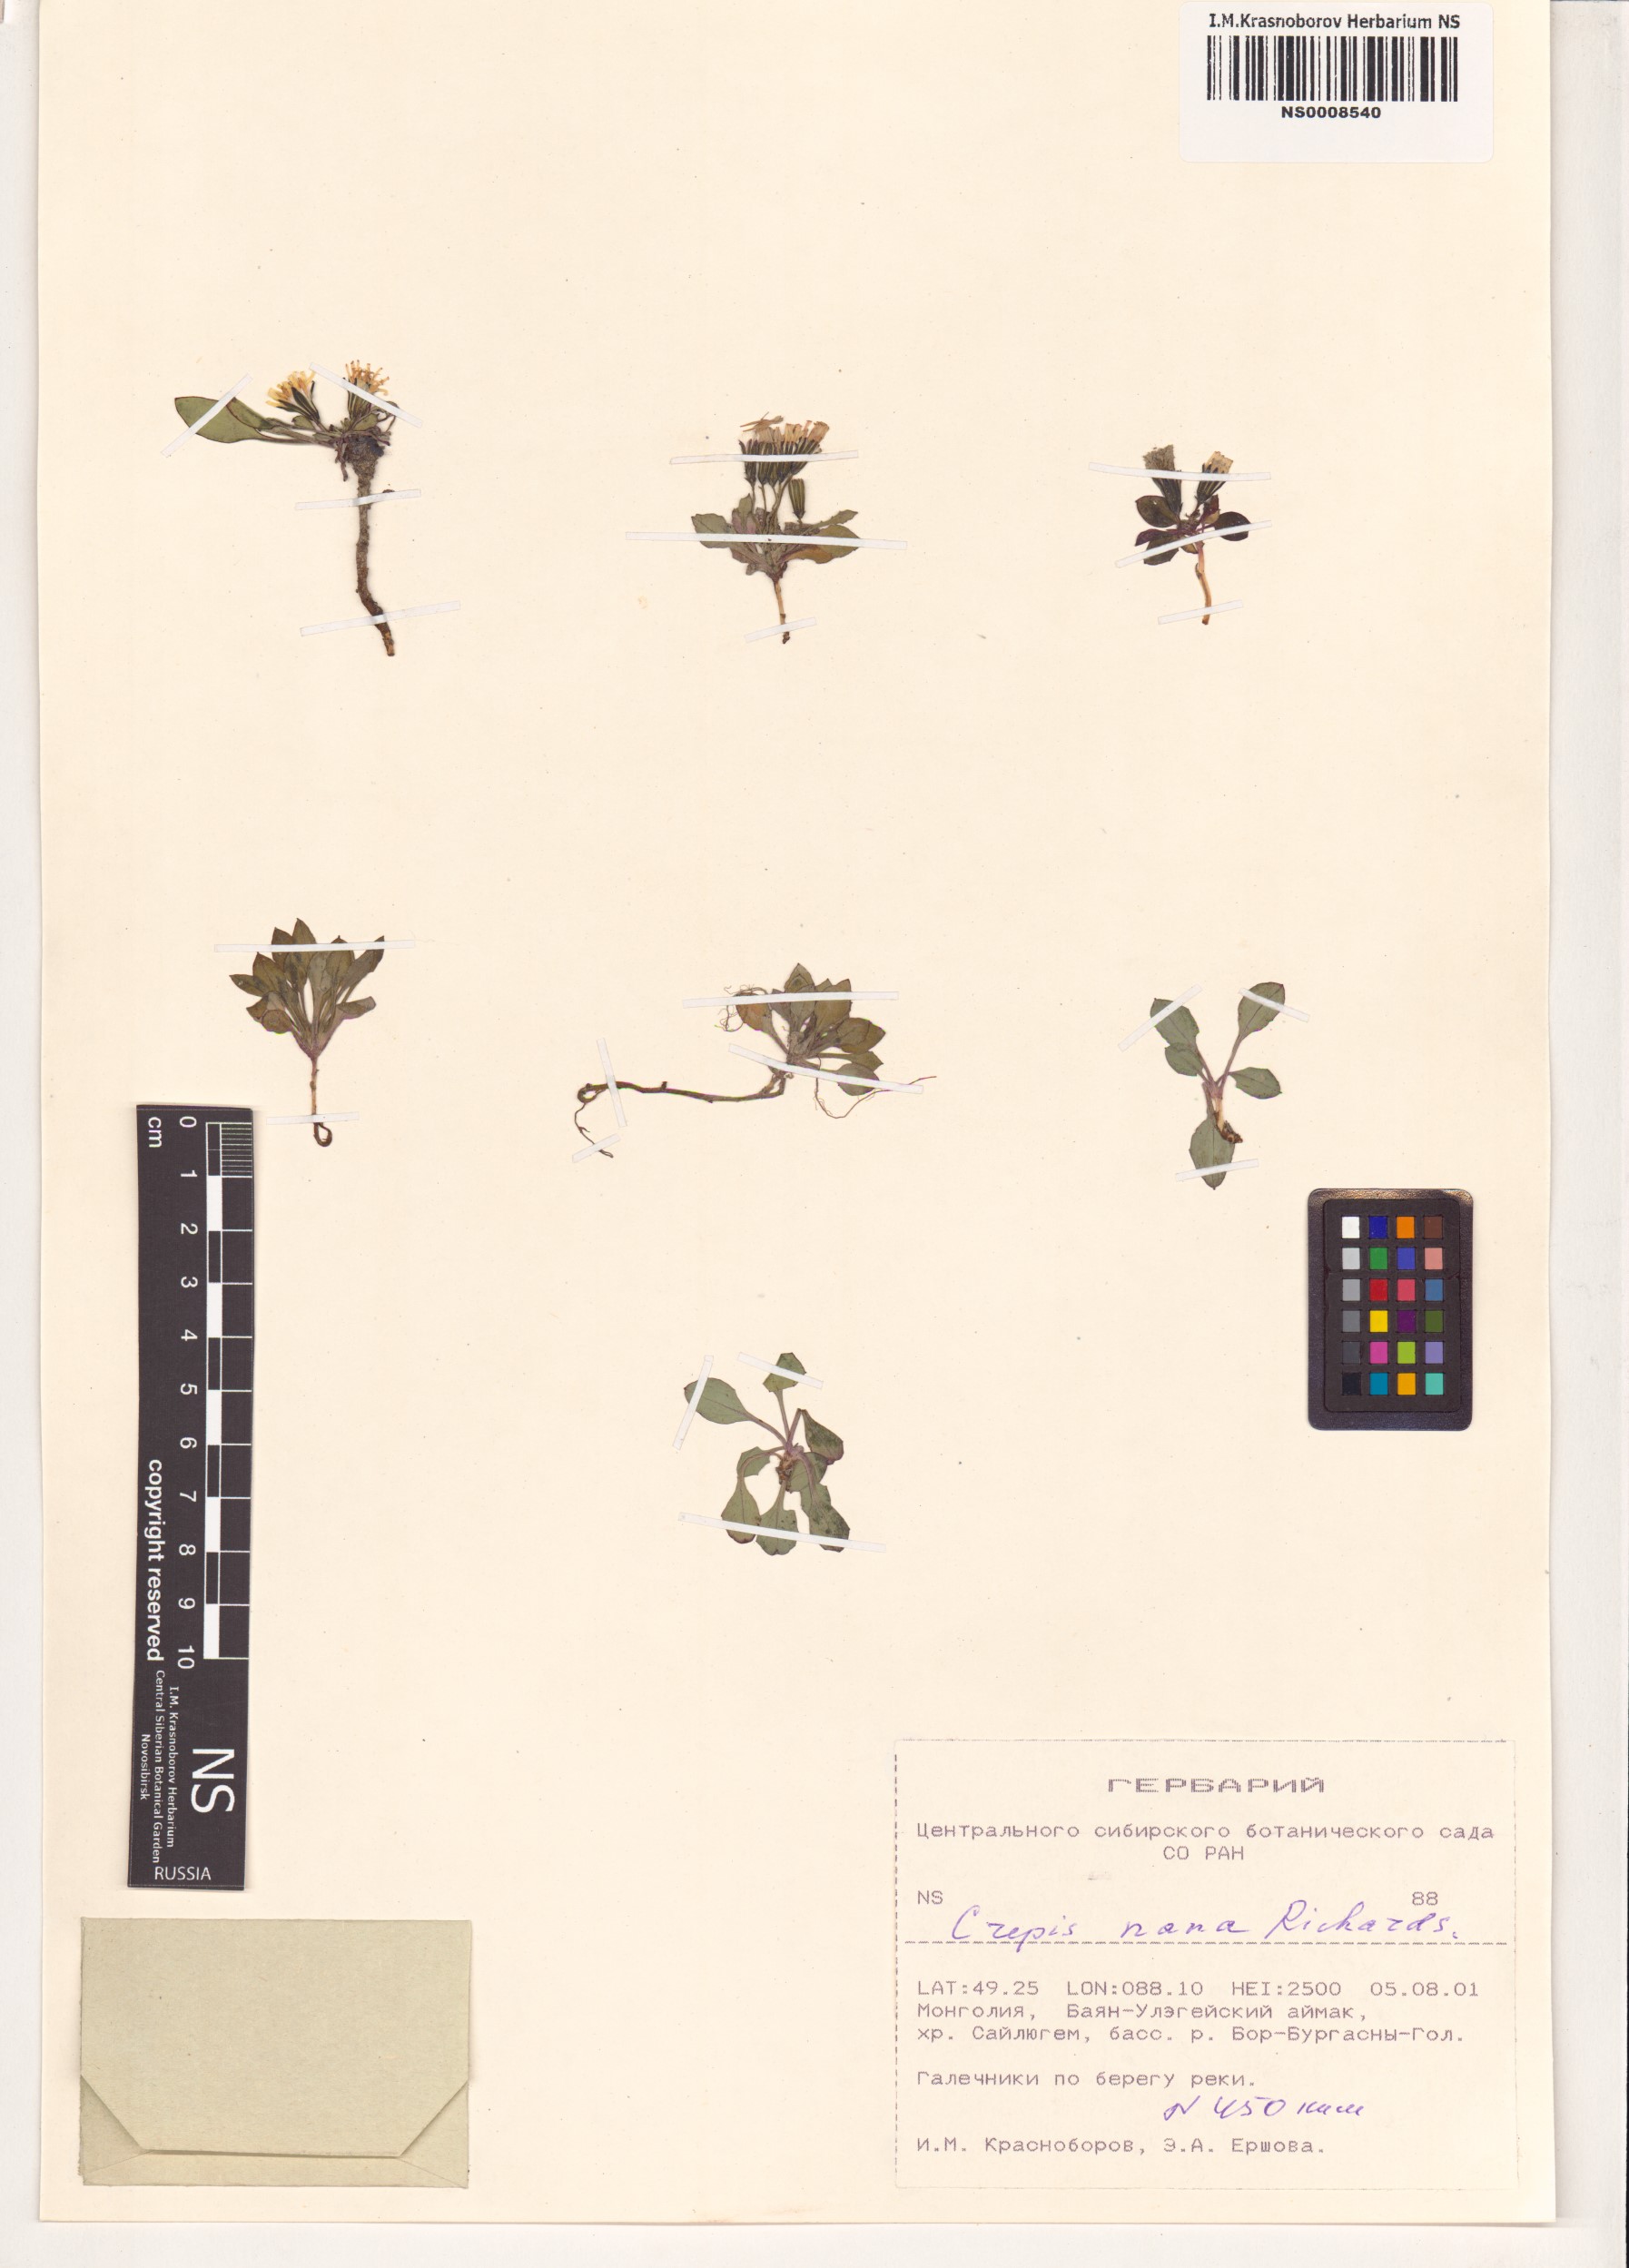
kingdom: Plantae
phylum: Tracheophyta
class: Magnoliopsida
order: Asterales
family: Asteraceae
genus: Askellia
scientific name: Askellia pygmaea
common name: Dwarf alpine hawksbeard
